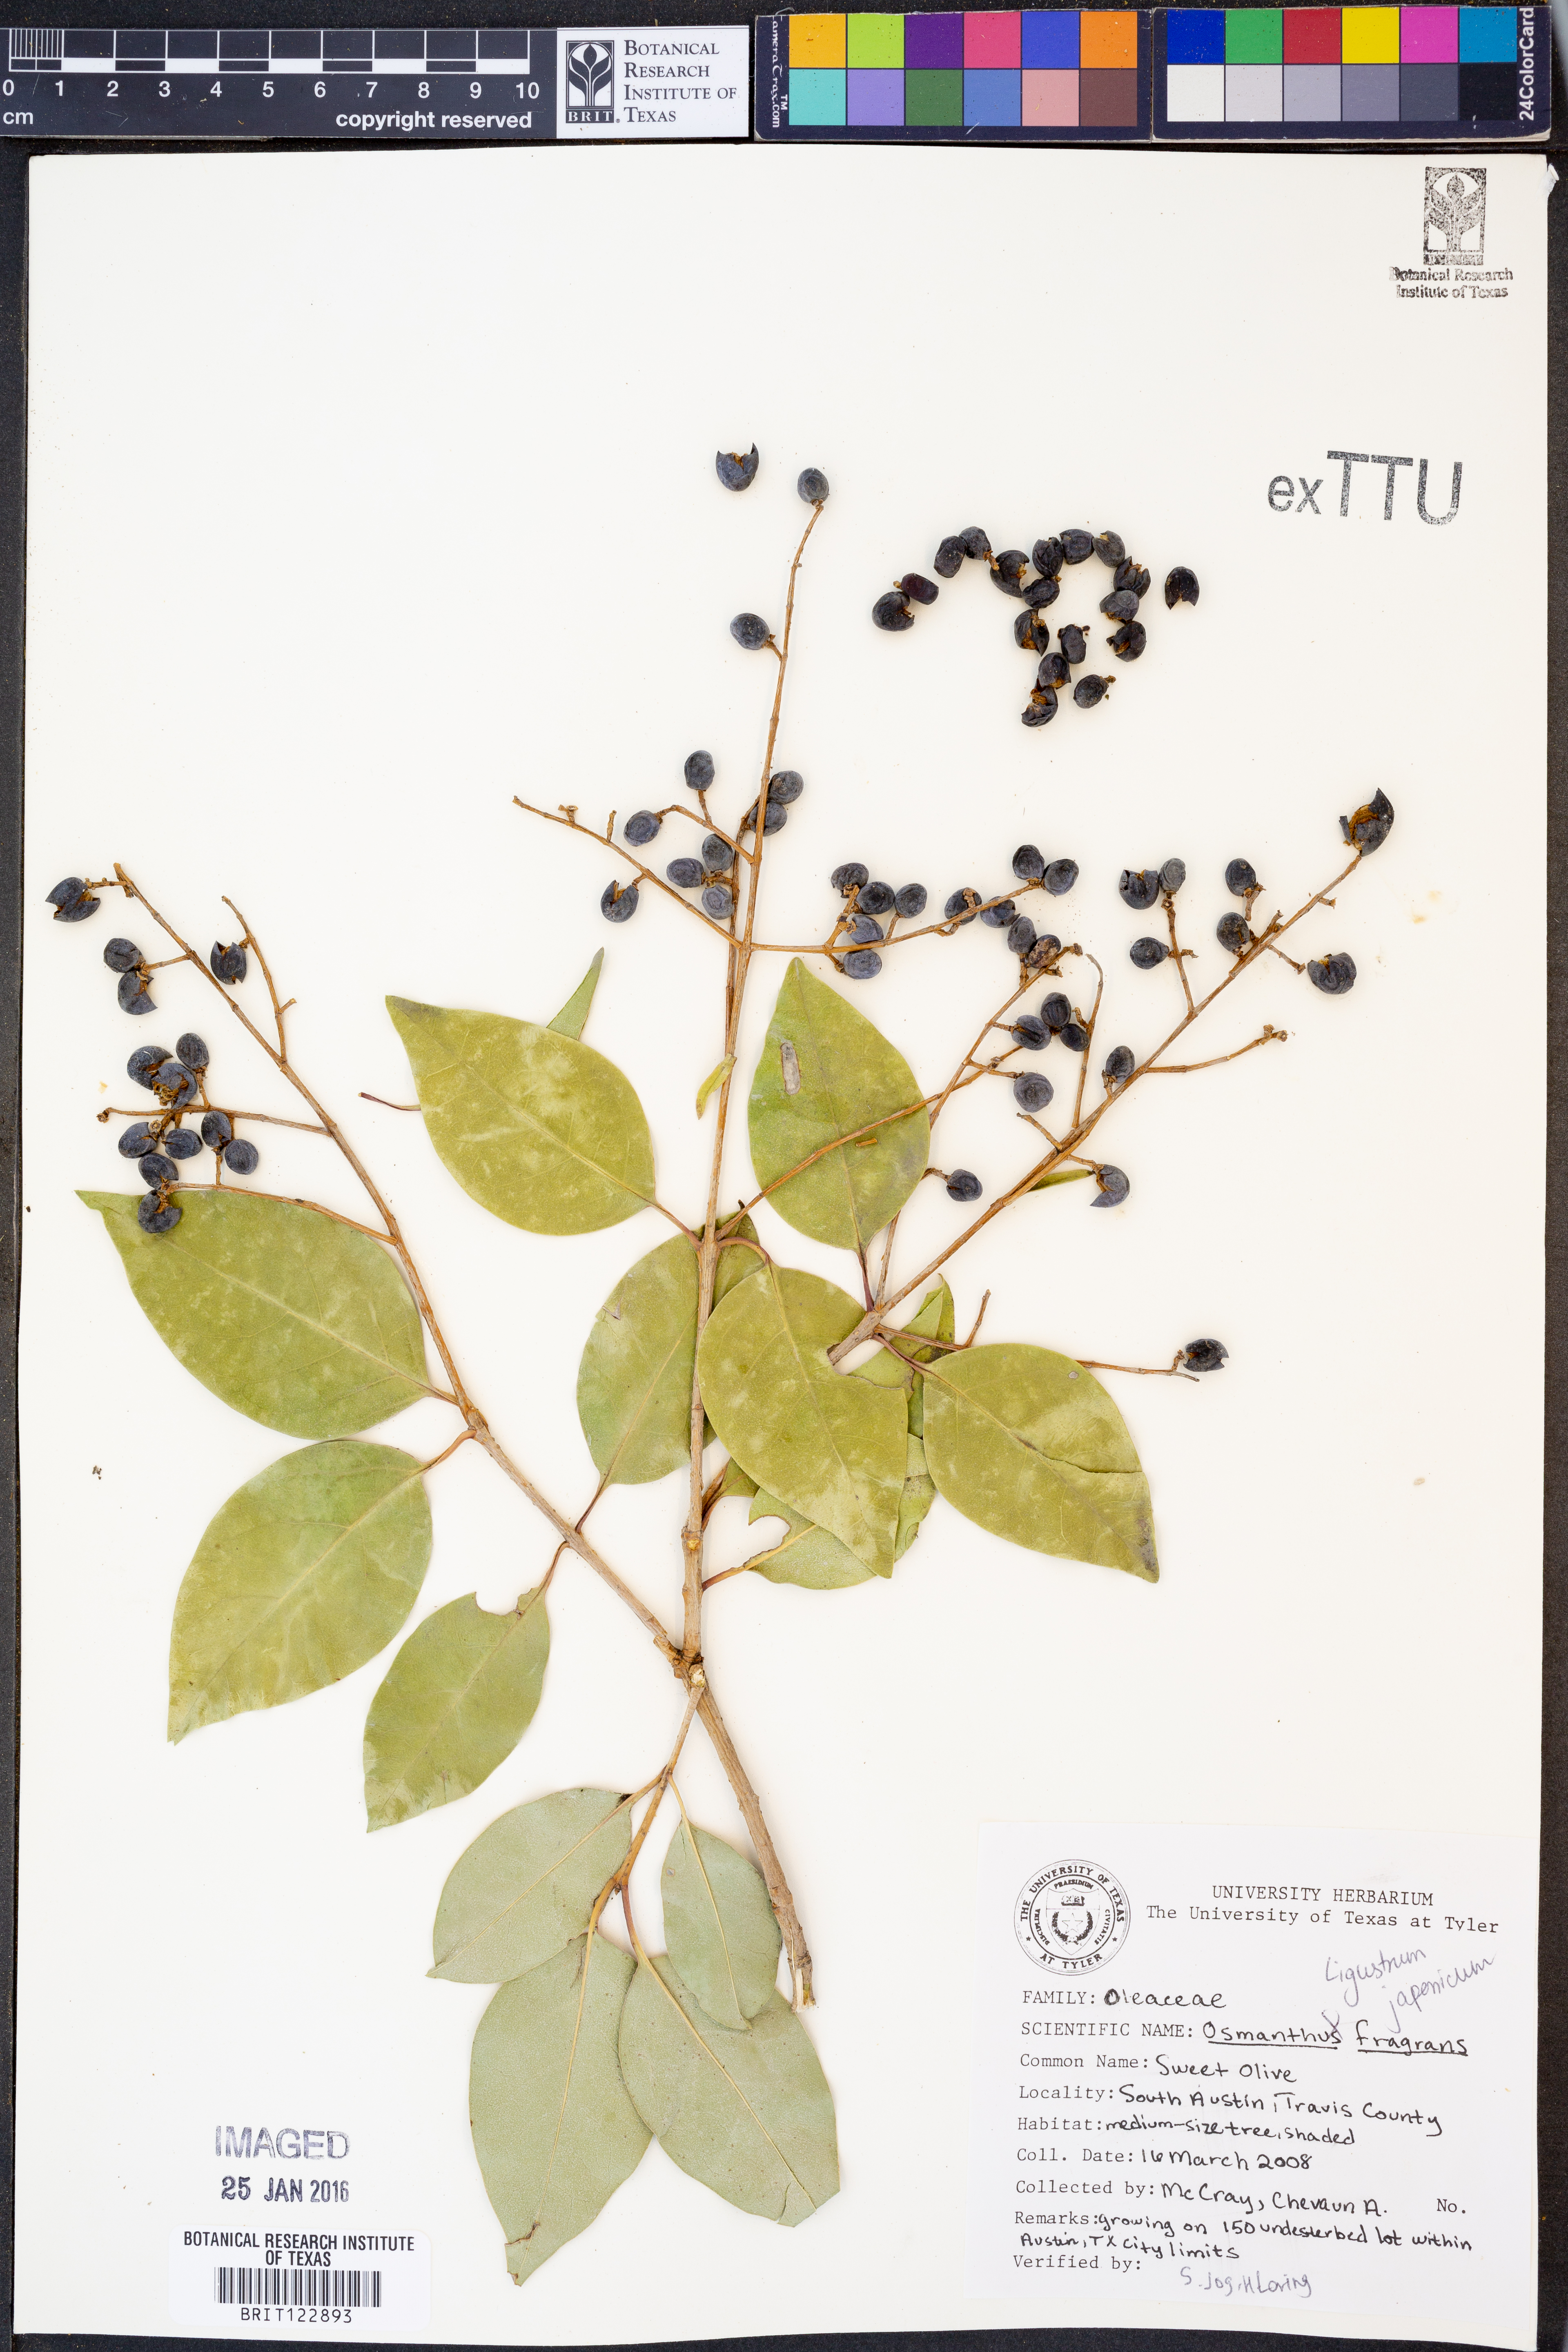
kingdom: Plantae
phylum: Tracheophyta
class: Magnoliopsida
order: Lamiales
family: Oleaceae
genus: Ligustrum
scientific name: Ligustrum japonicum
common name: Japanese privet
